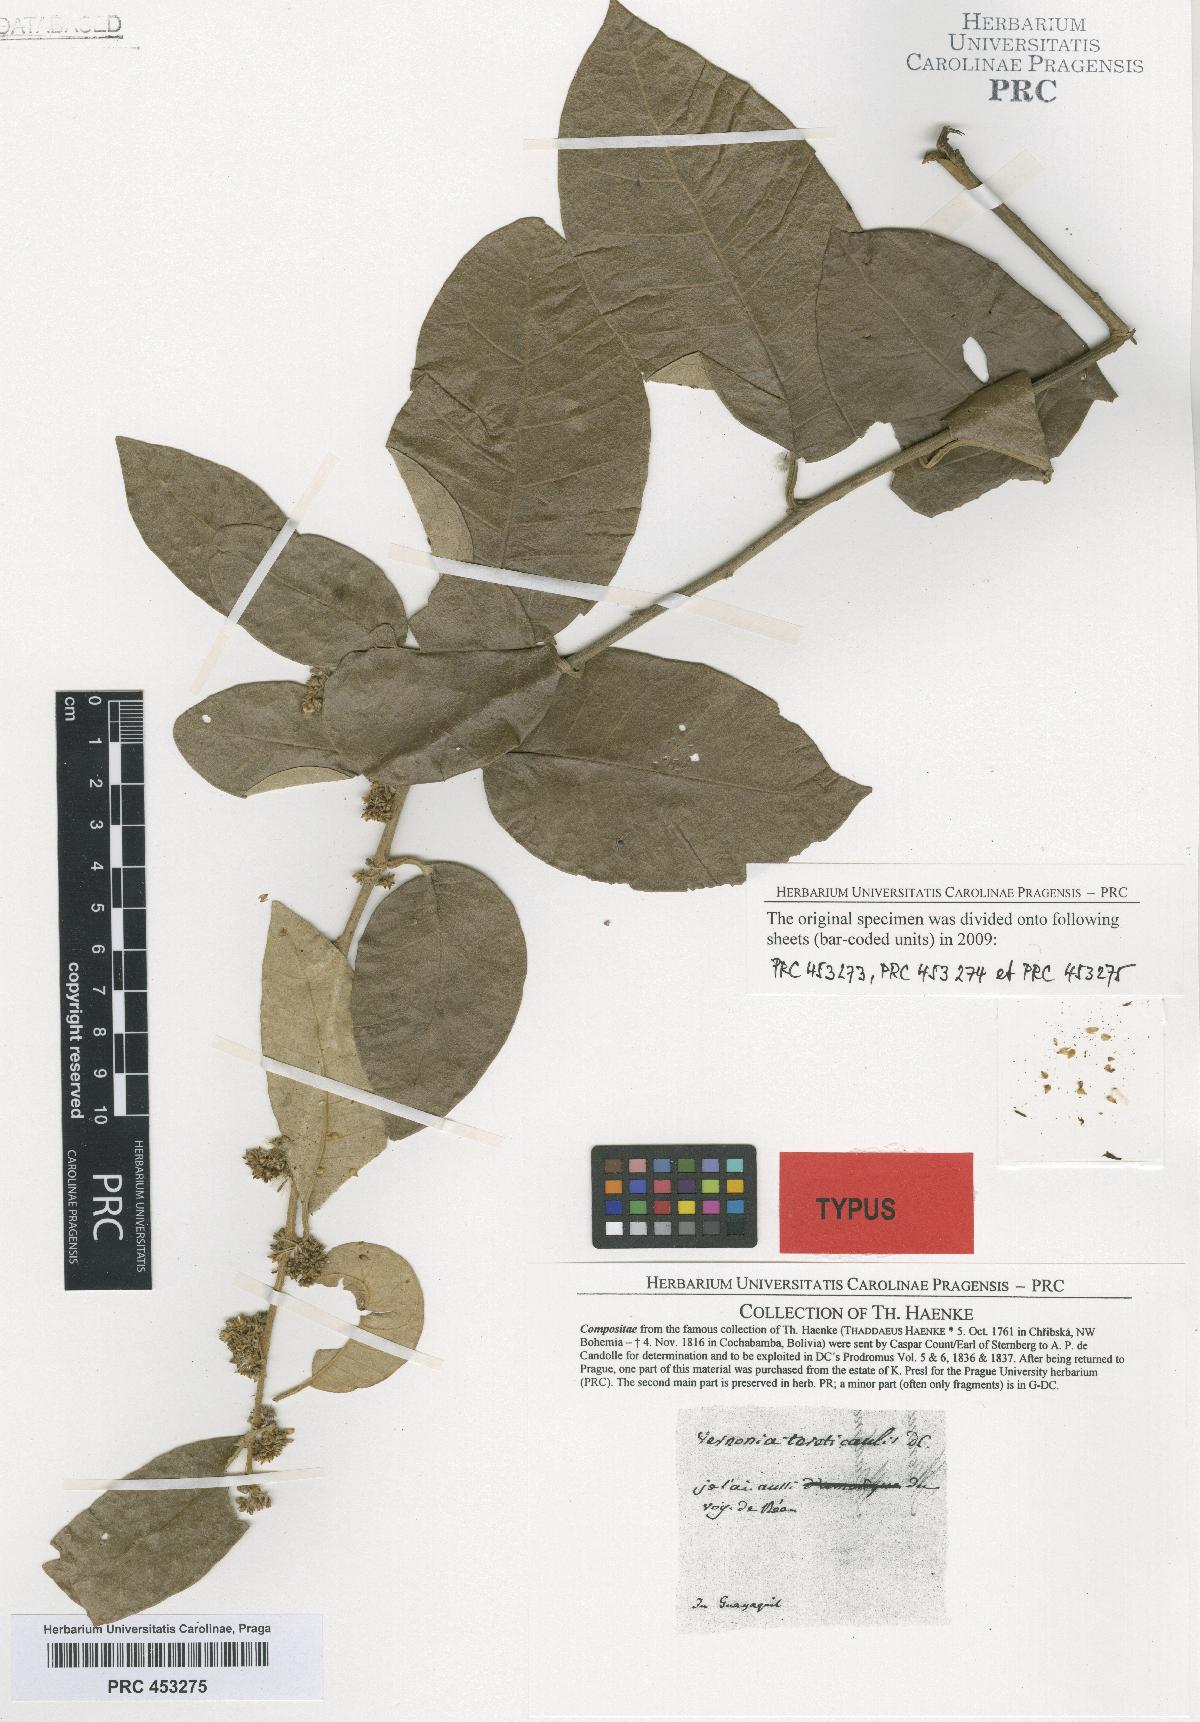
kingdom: Plantae
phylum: Tracheophyta
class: Magnoliopsida
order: Asterales
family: Asteraceae
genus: Piptocarpha
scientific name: Piptocarpha poeppigiana
